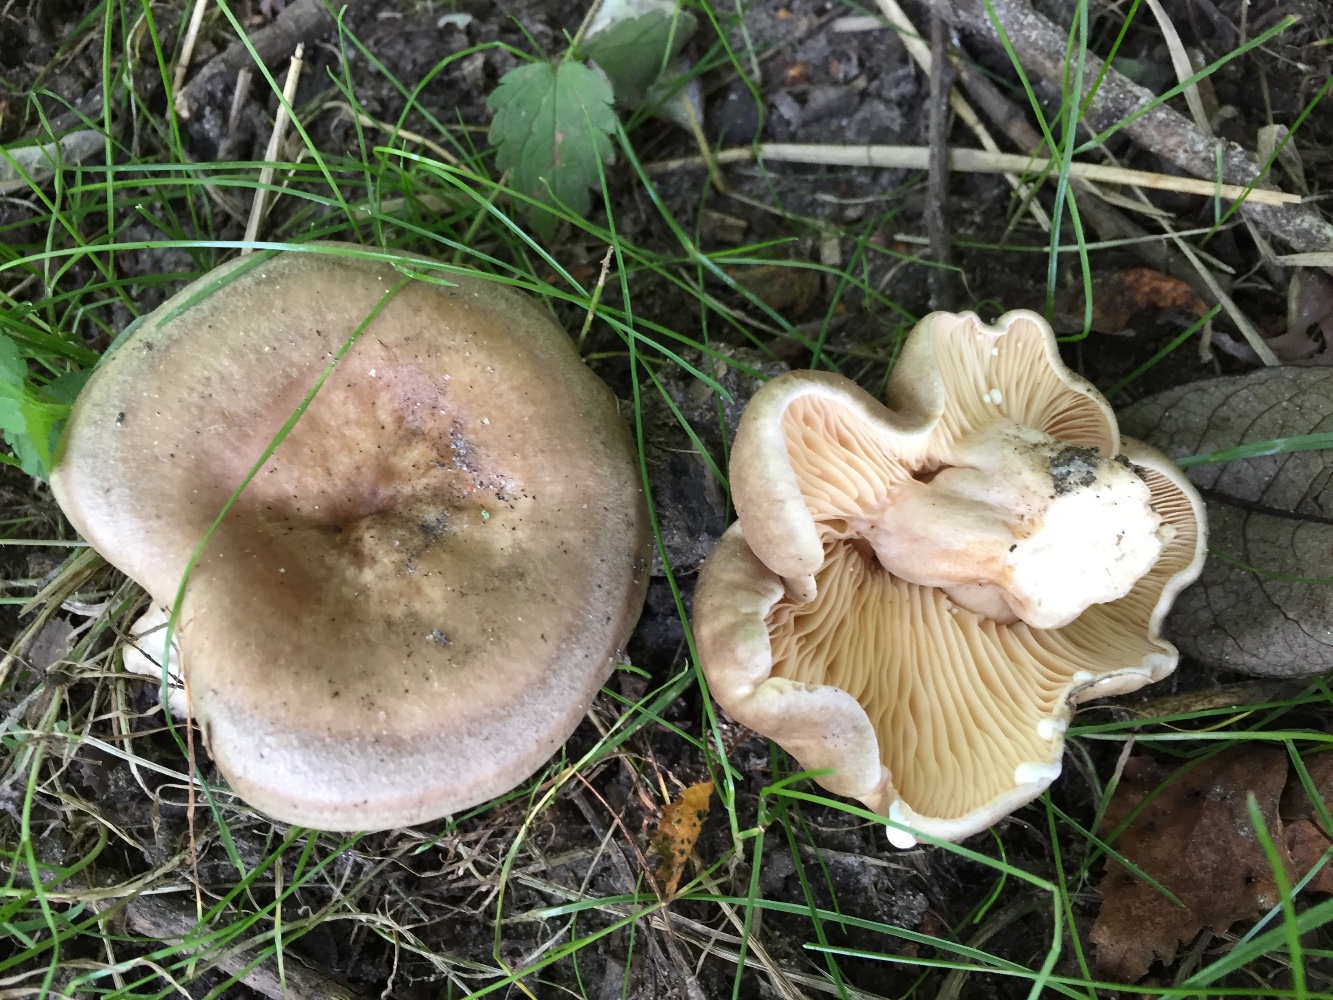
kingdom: Fungi
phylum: Basidiomycota
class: Agaricomycetes
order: Russulales
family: Russulaceae
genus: Lactarius
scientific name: Lactarius pyrogalus
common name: hassel-mælkehat
